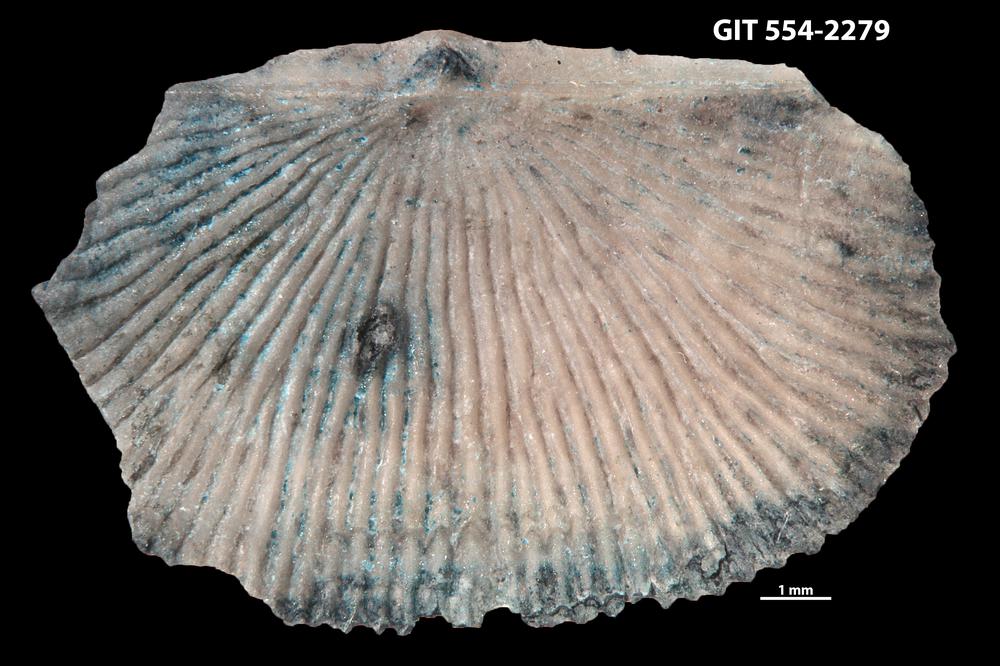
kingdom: Animalia
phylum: Brachiopoda
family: Strophochonetidae
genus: Protochonetes
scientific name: Protochonetes piltenensis
